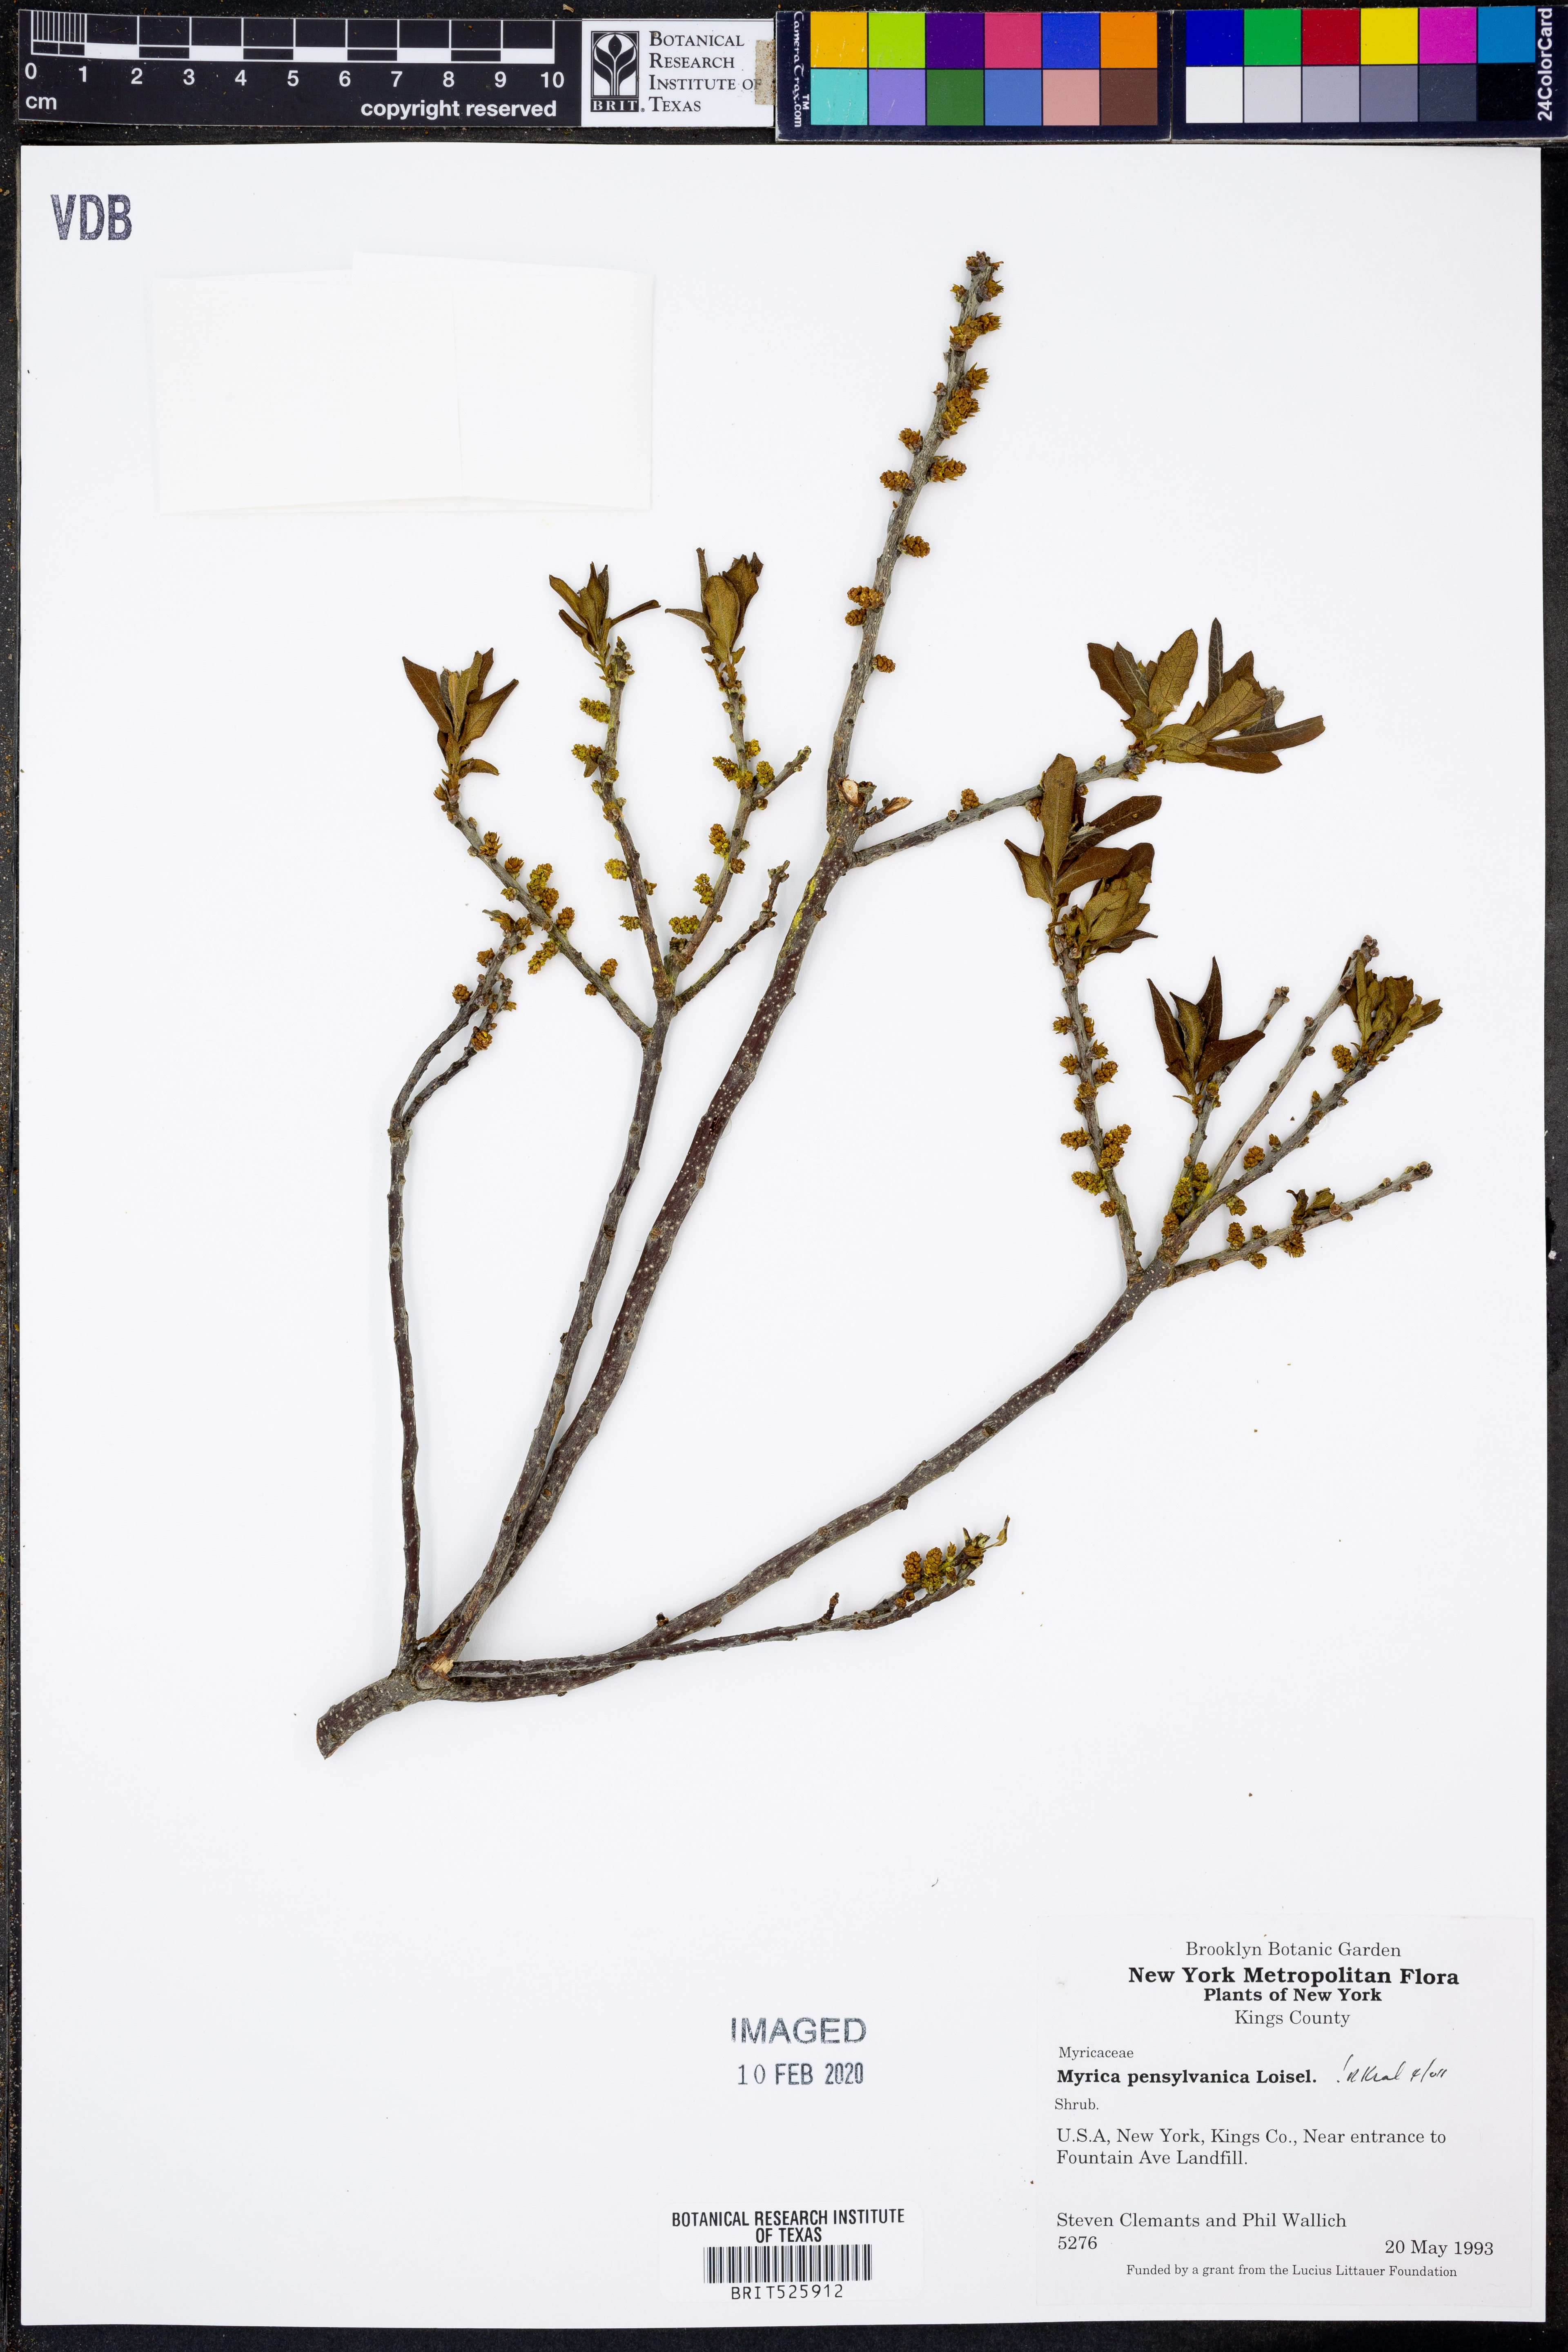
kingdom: Plantae
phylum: Tracheophyta
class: Magnoliopsida
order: Fagales
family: Myricaceae
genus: Morella
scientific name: Morella pensylvanica
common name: Northern bayberry
